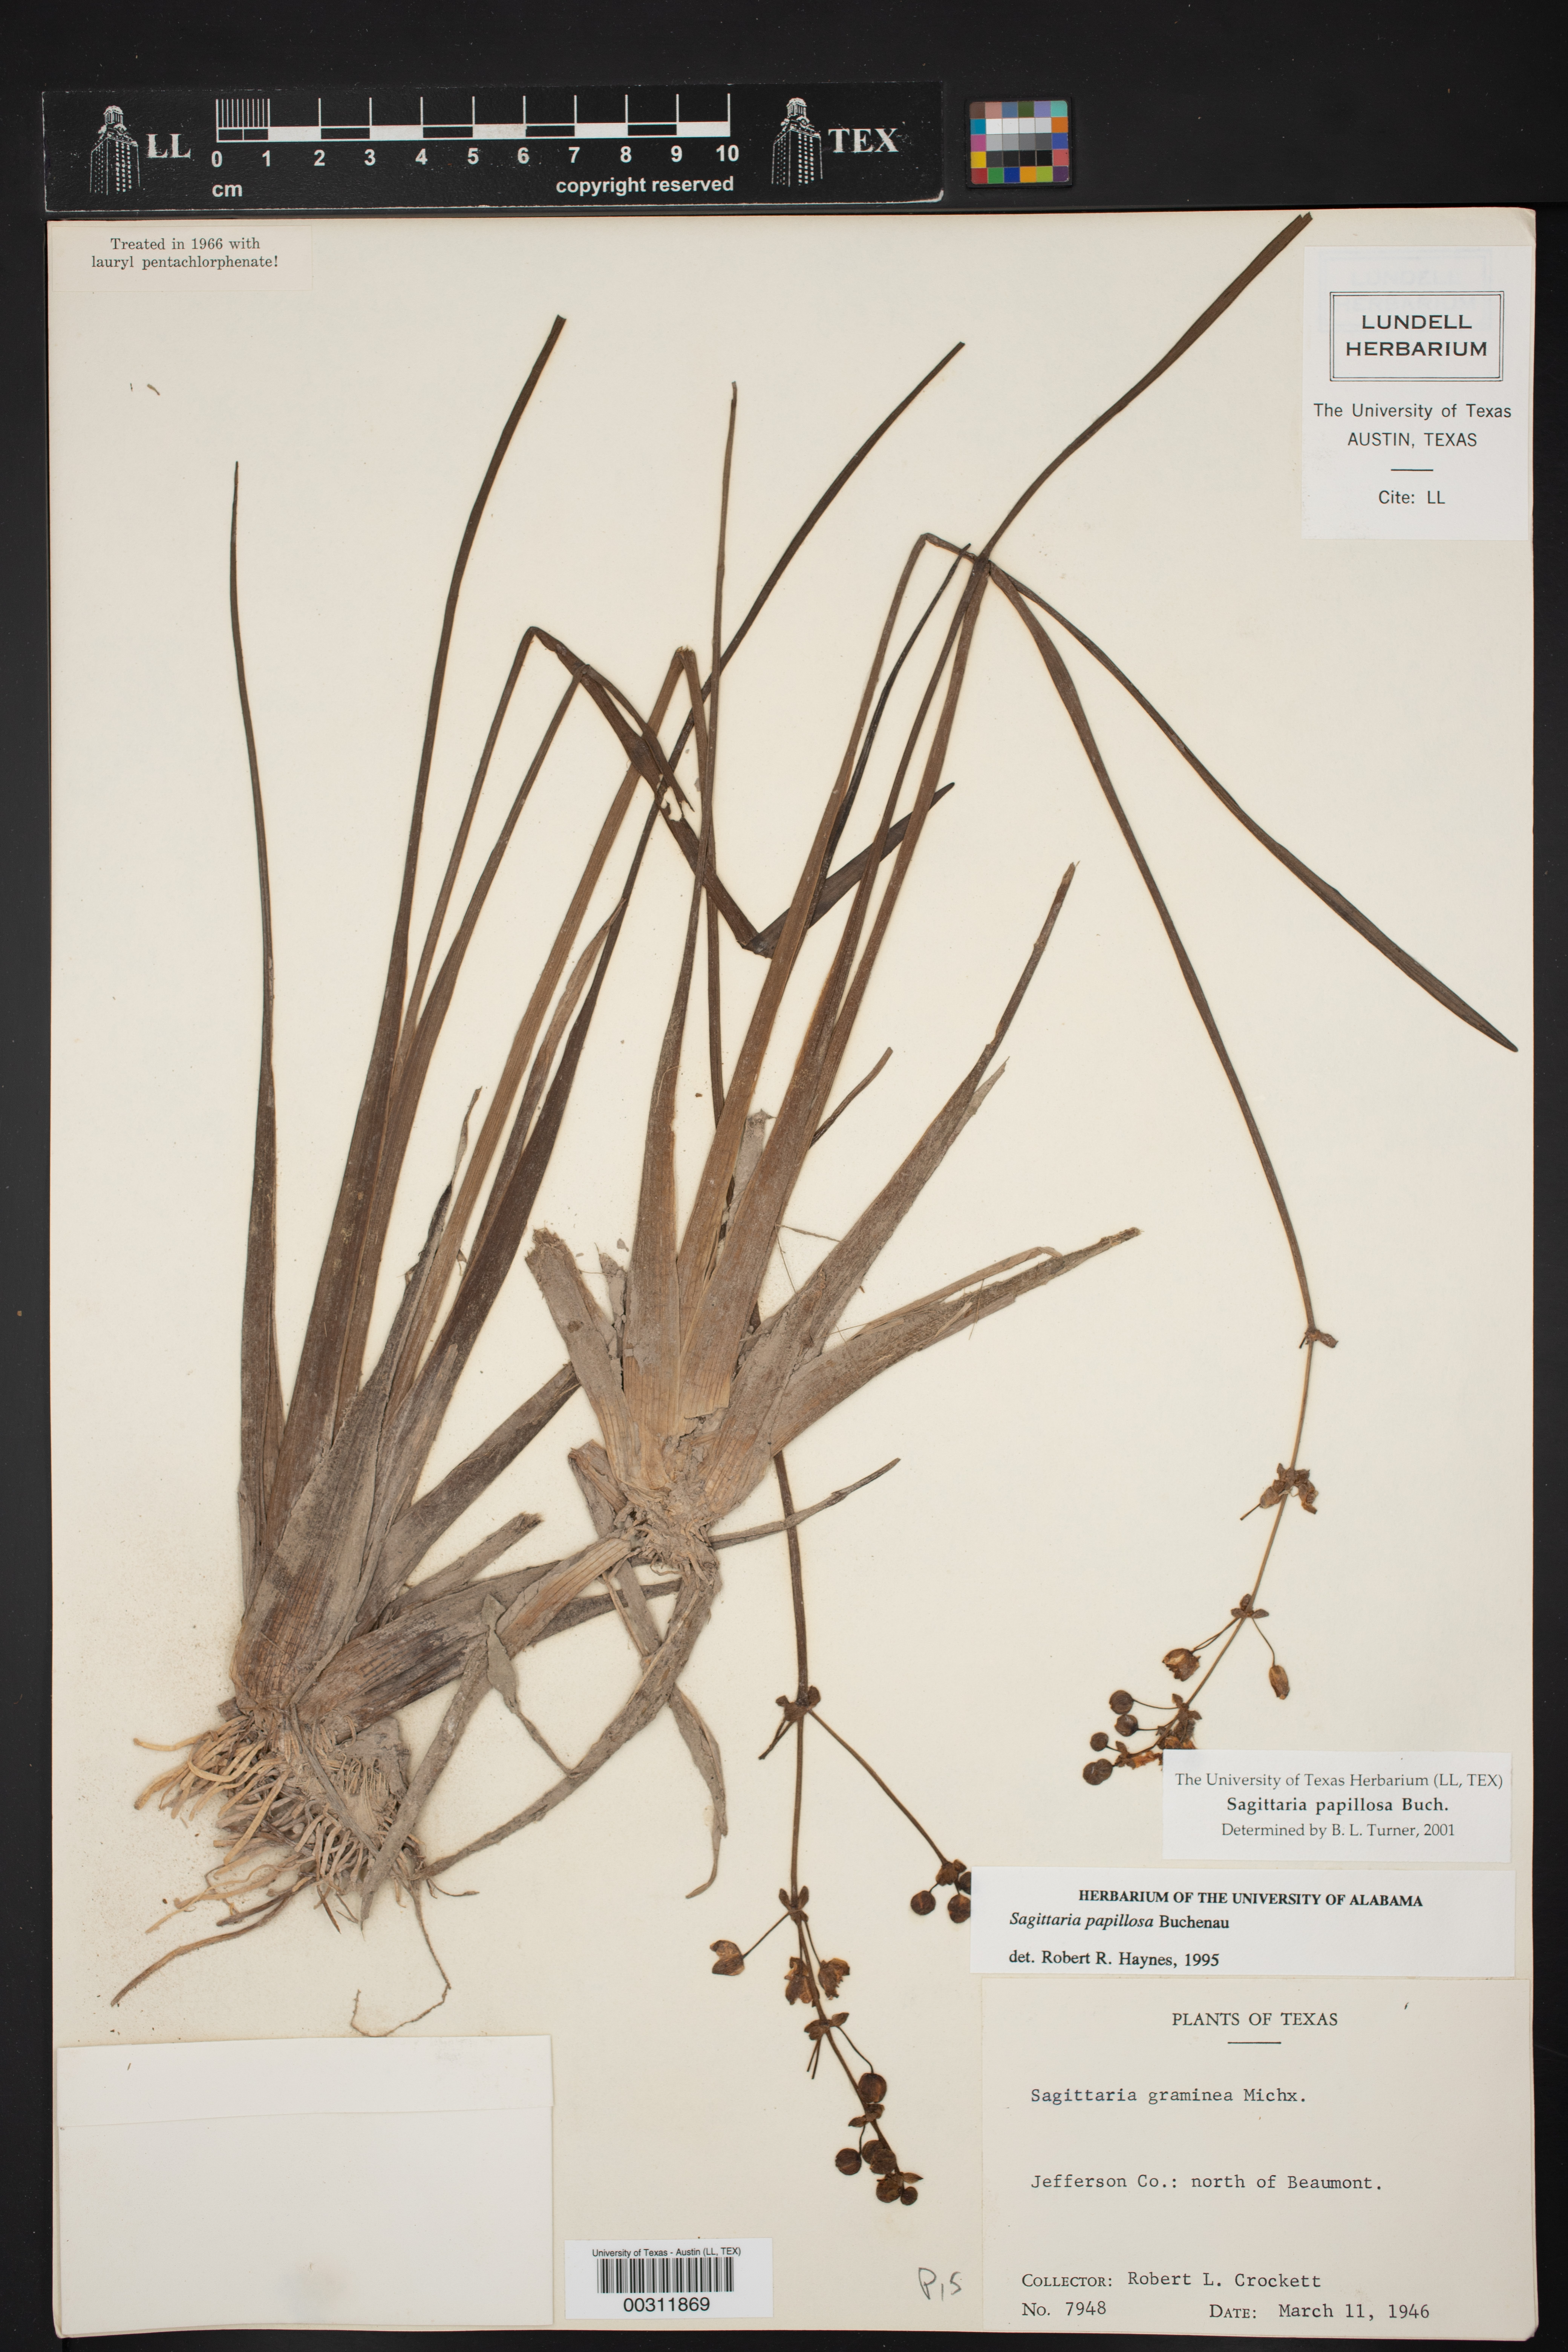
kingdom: Plantae
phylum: Tracheophyta
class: Liliopsida
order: Alismatales
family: Alismataceae
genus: Sagittaria
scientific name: Sagittaria papillosa
